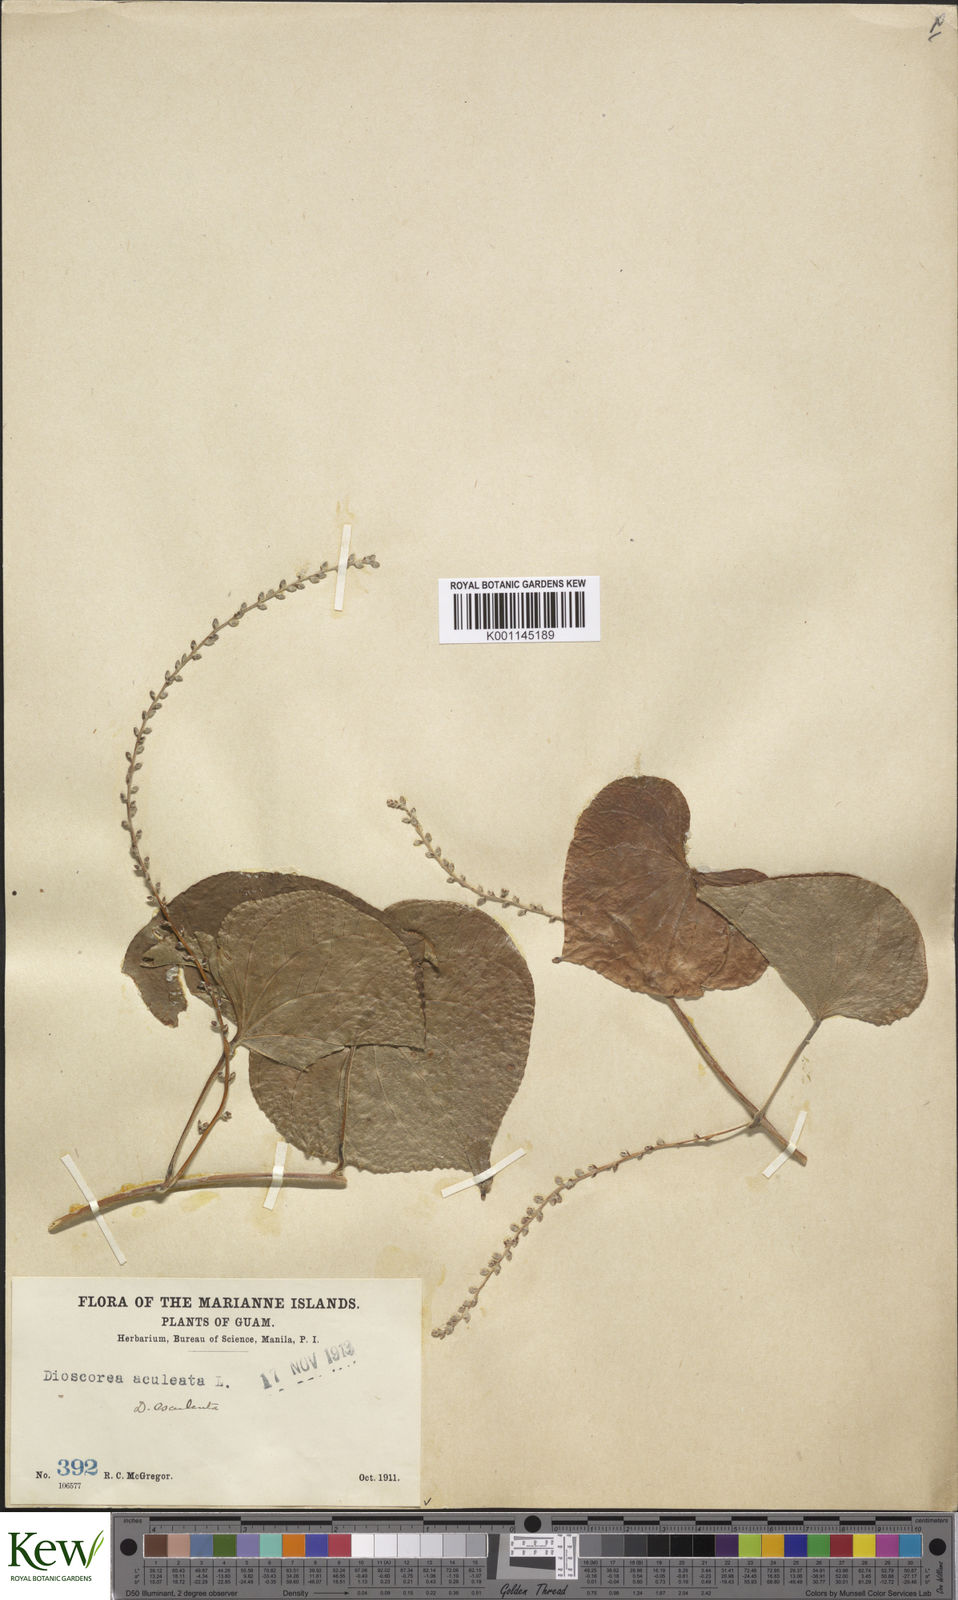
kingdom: Plantae
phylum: Tracheophyta
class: Liliopsida
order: Dioscoreales
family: Dioscoreaceae
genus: Dioscorea
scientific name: Dioscorea esculenta
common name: Chinese yam
